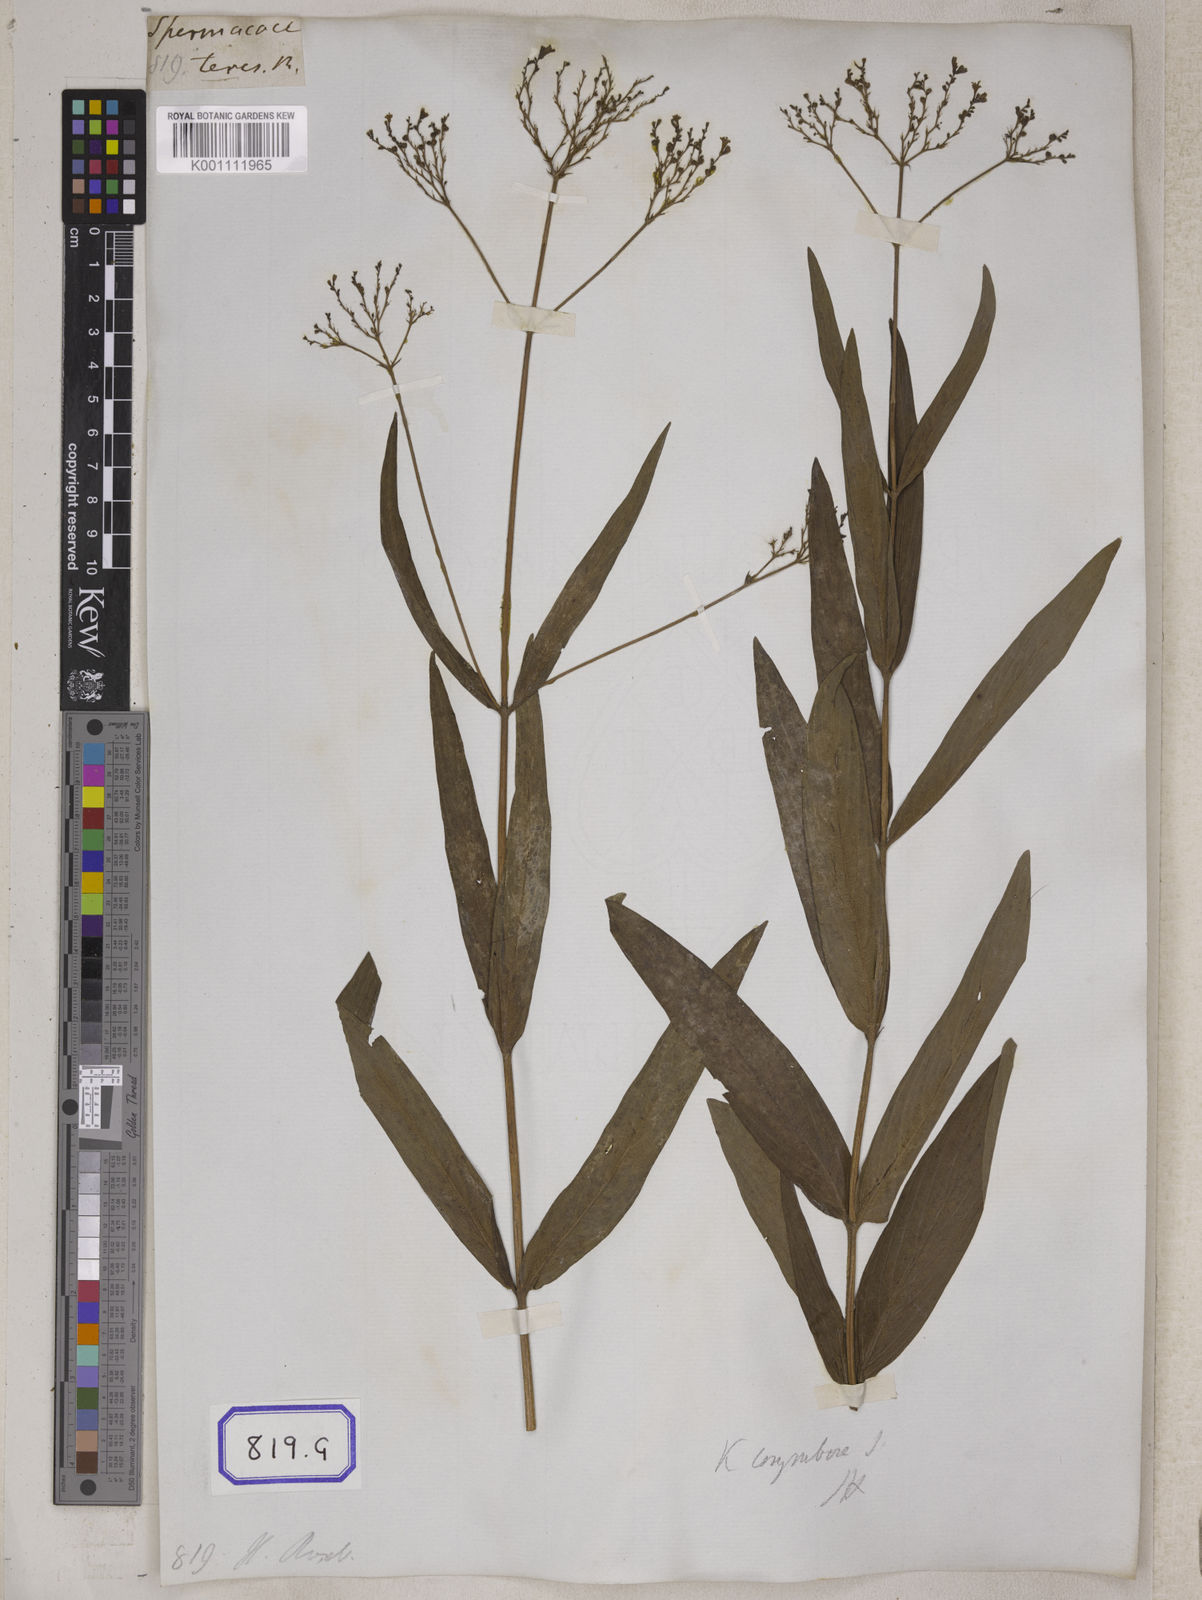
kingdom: Plantae
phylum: Tracheophyta
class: Magnoliopsida
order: Gentianales
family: Rubiaceae
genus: Knoxia
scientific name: Knoxia sumatrensis
